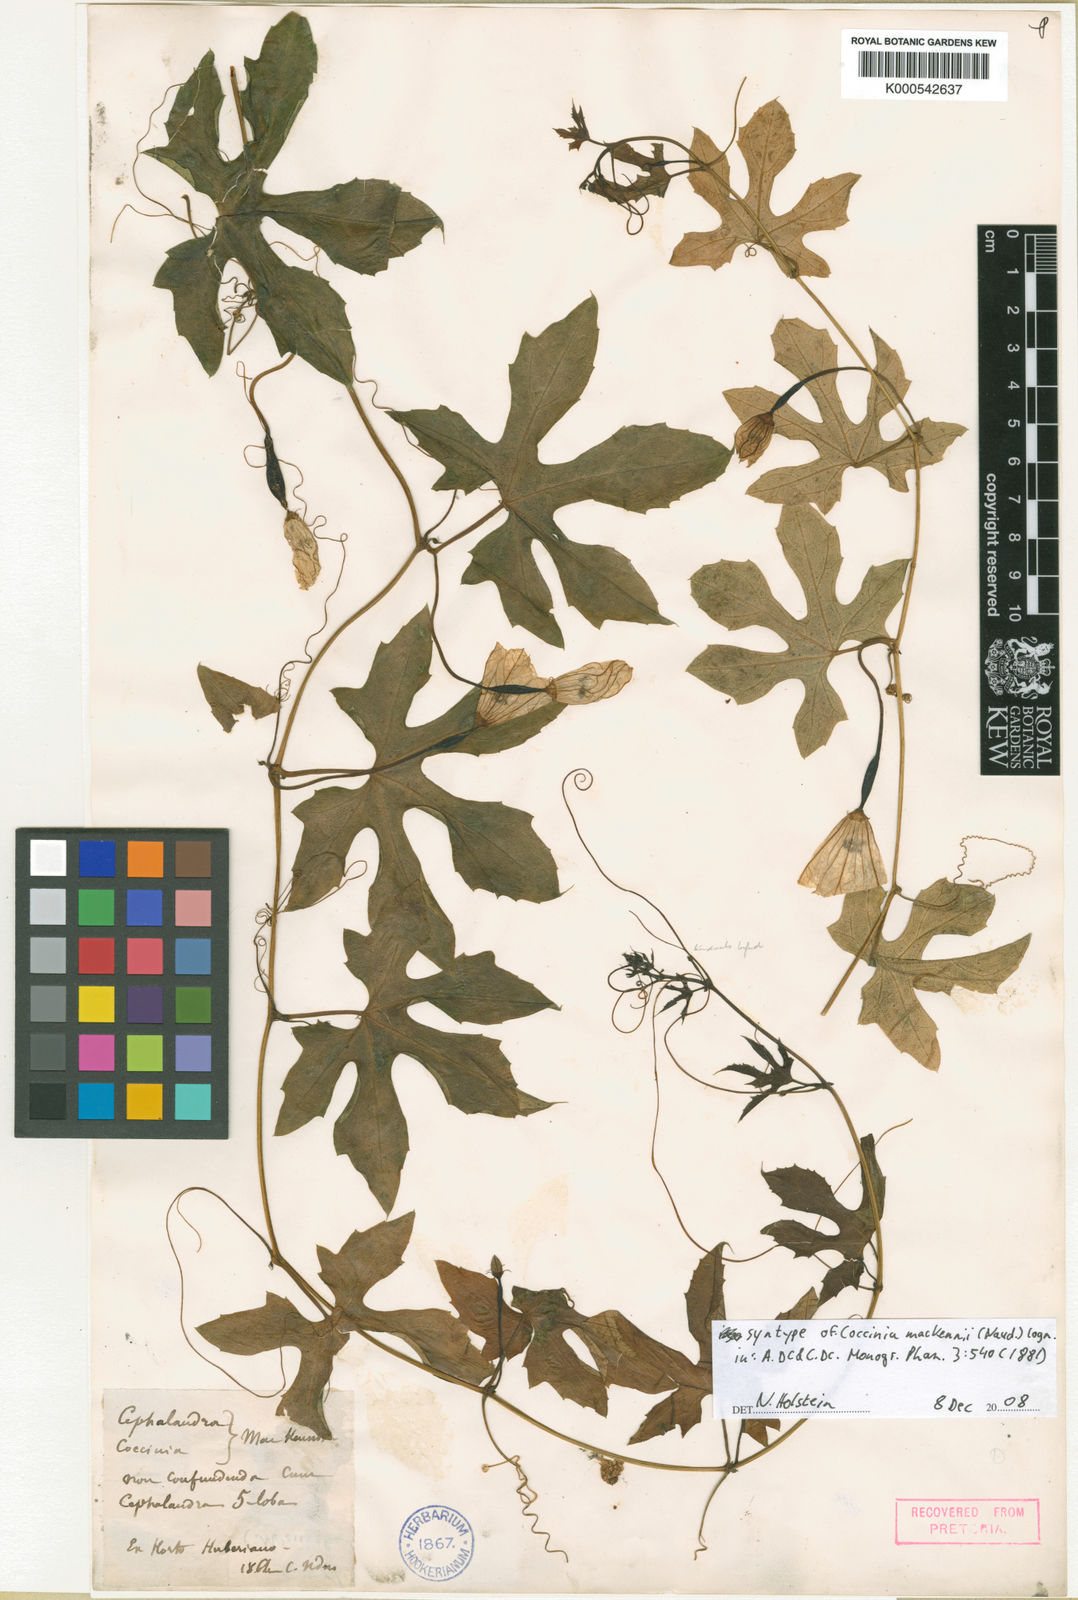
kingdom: Plantae
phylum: Tracheophyta
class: Magnoliopsida
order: Cucurbitales
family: Cucurbitaceae
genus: Coccinia
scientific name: Coccinia
